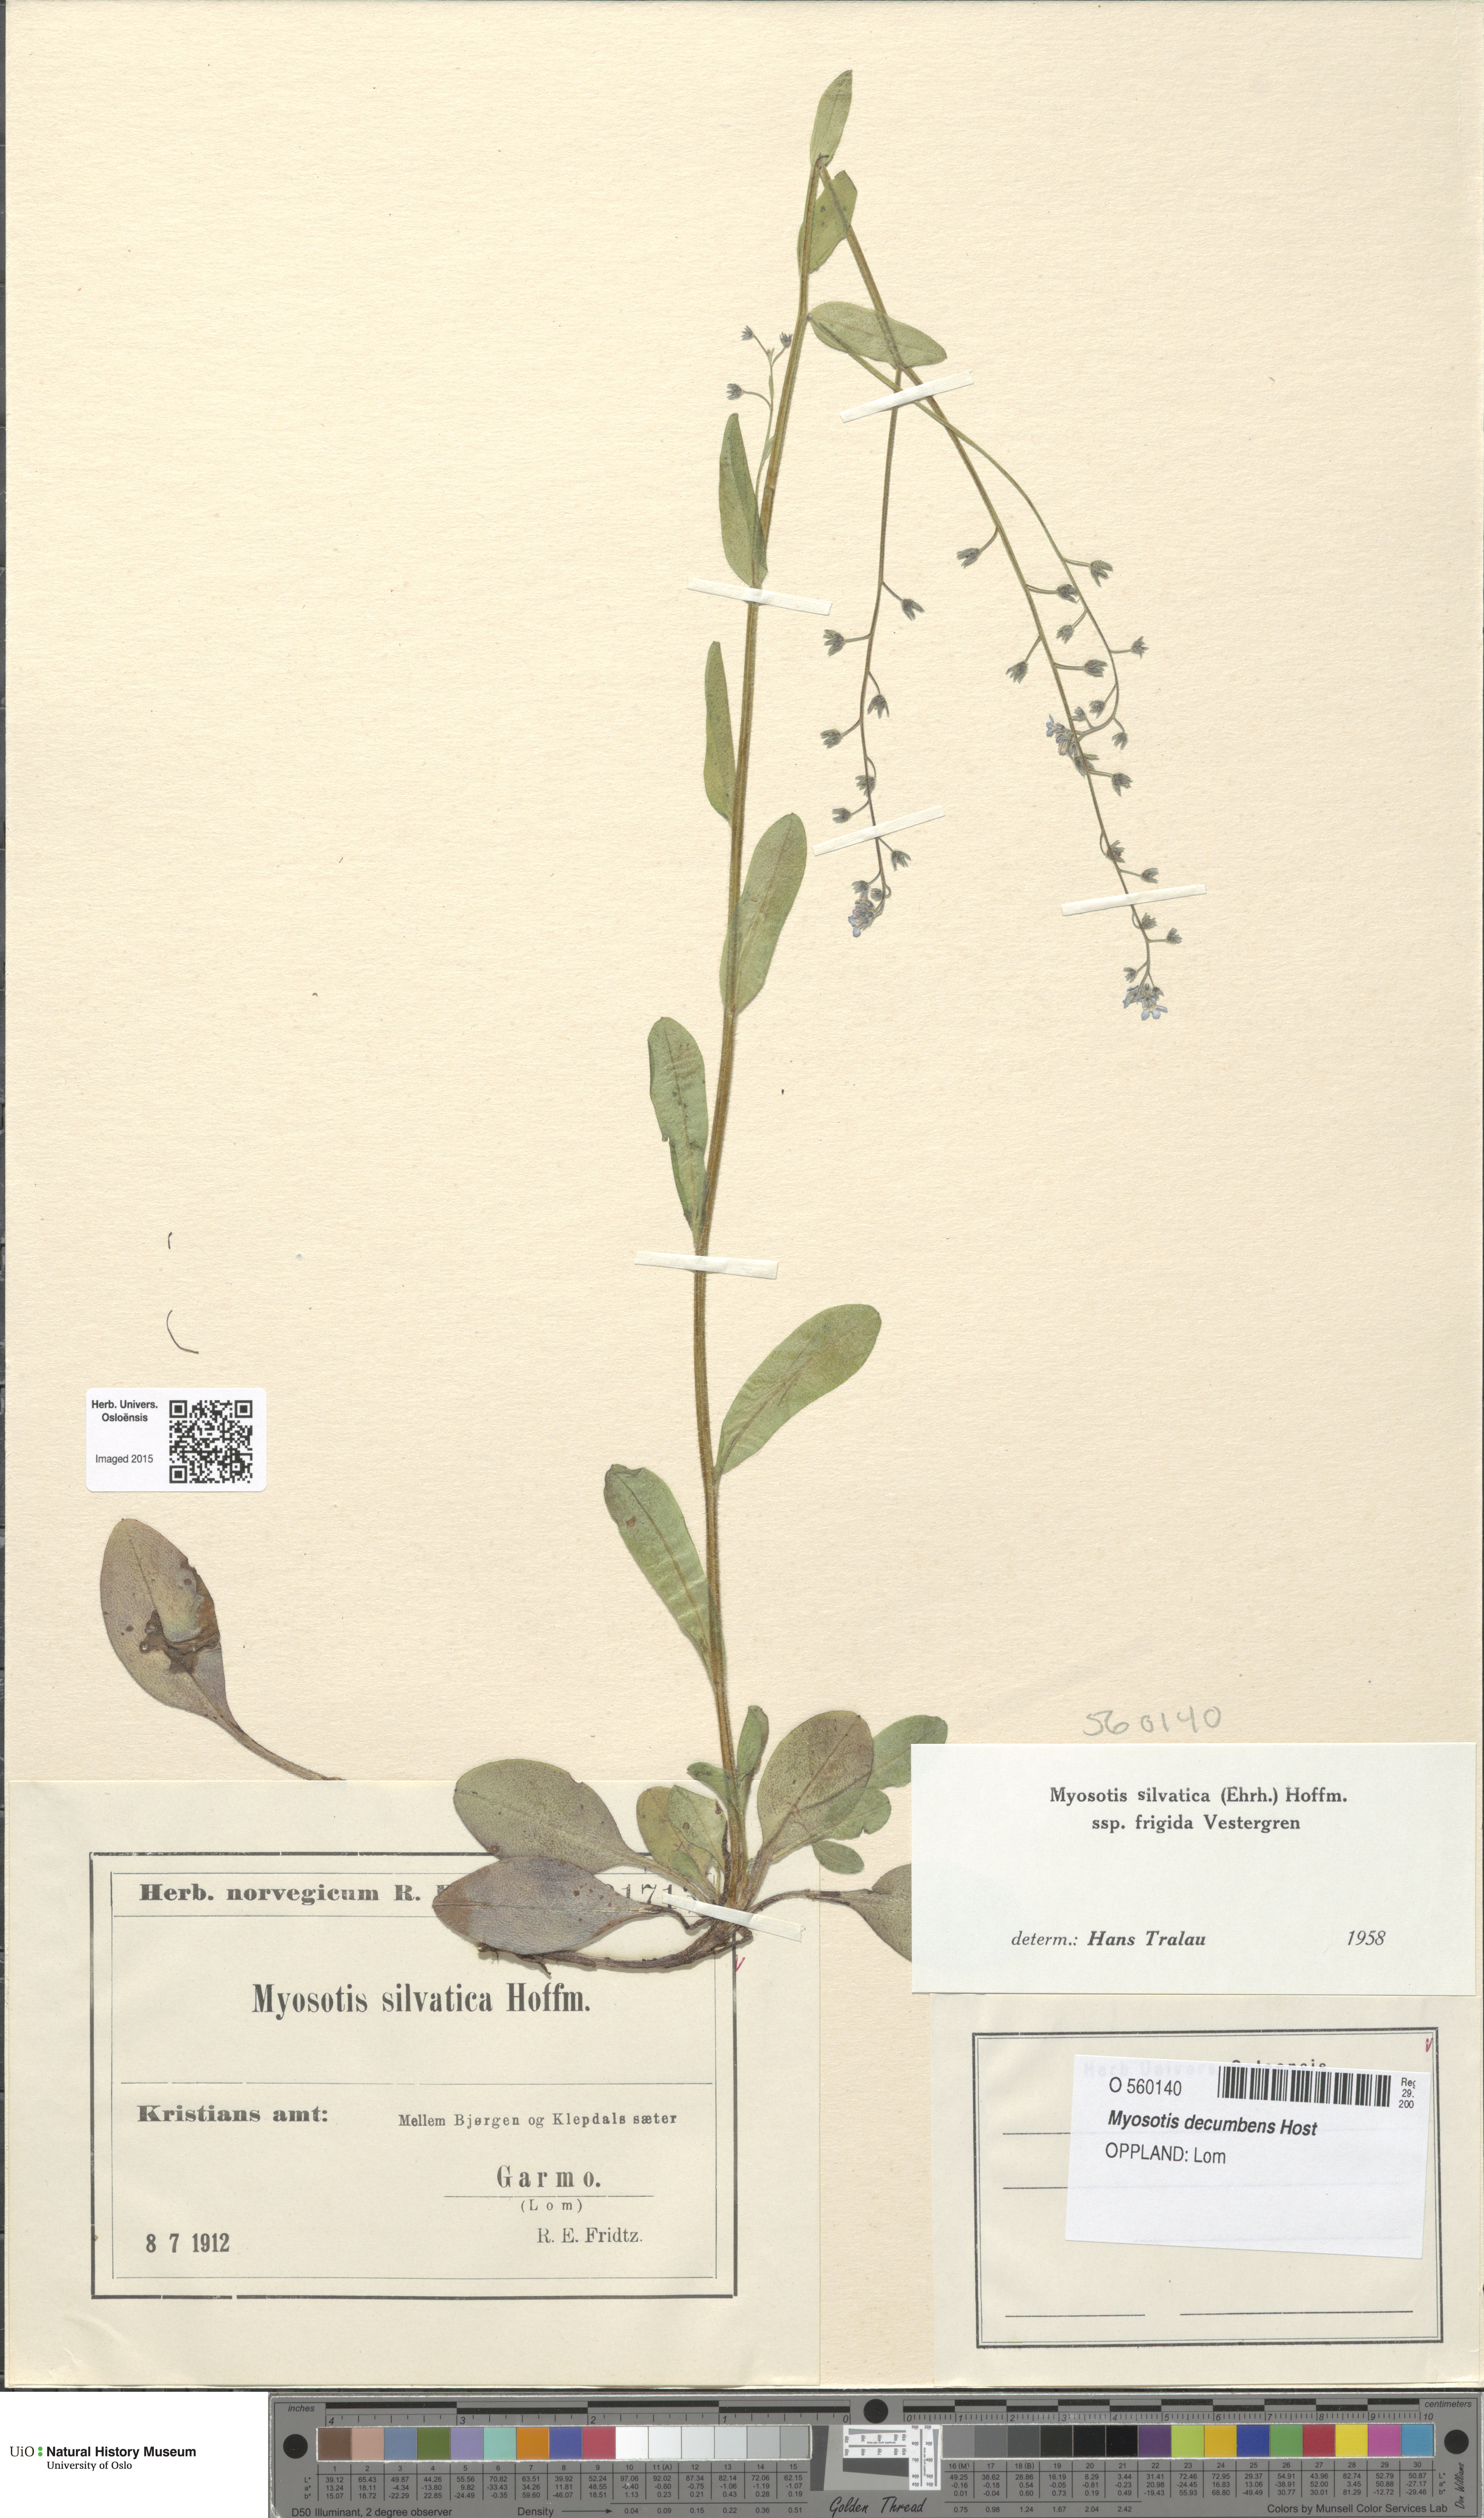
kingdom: Plantae
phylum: Tracheophyta
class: Magnoliopsida
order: Boraginales
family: Boraginaceae
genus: Myosotis
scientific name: Myosotis decumbens
